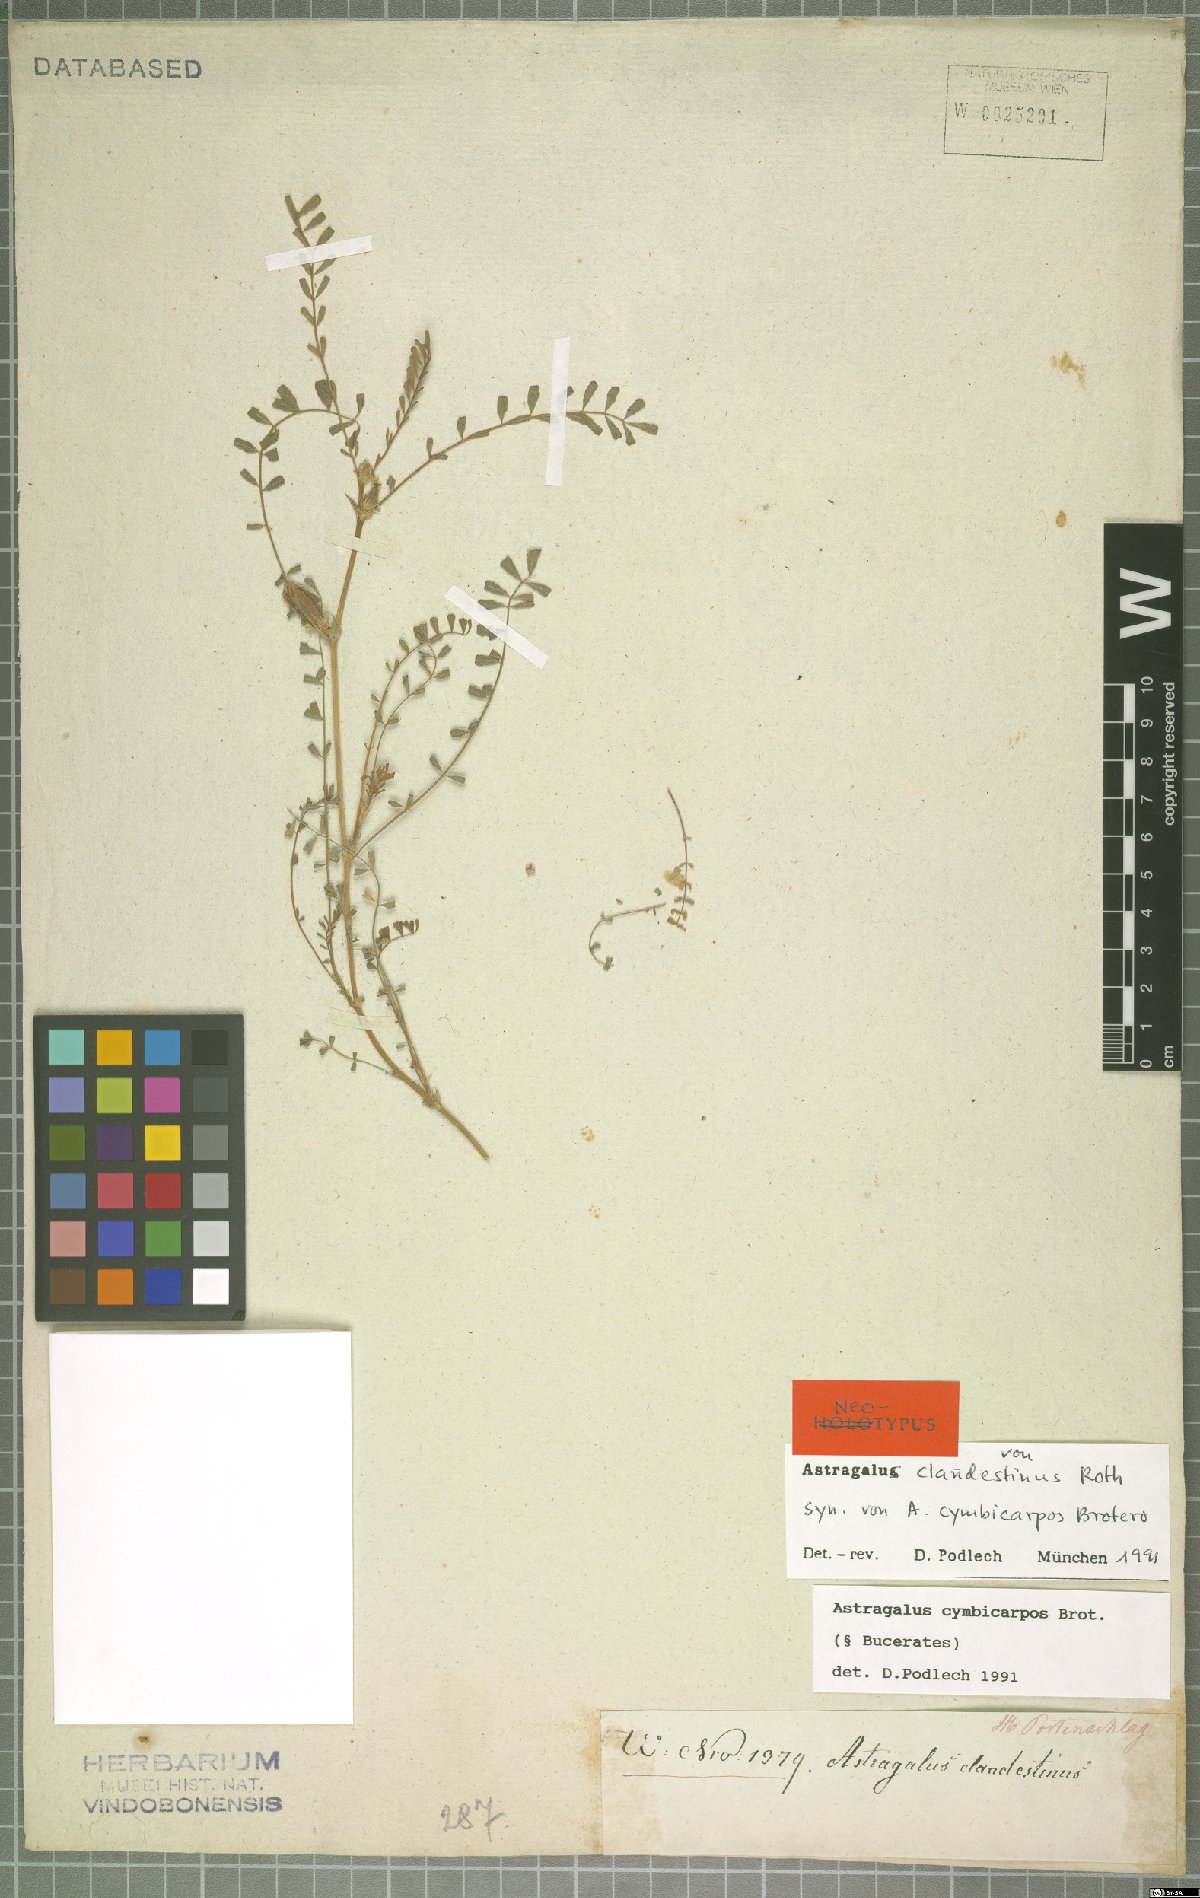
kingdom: Plantae
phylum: Tracheophyta
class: Magnoliopsida
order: Fabales
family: Fabaceae
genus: Astragalus
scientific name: Astragalus cymbicarpos
